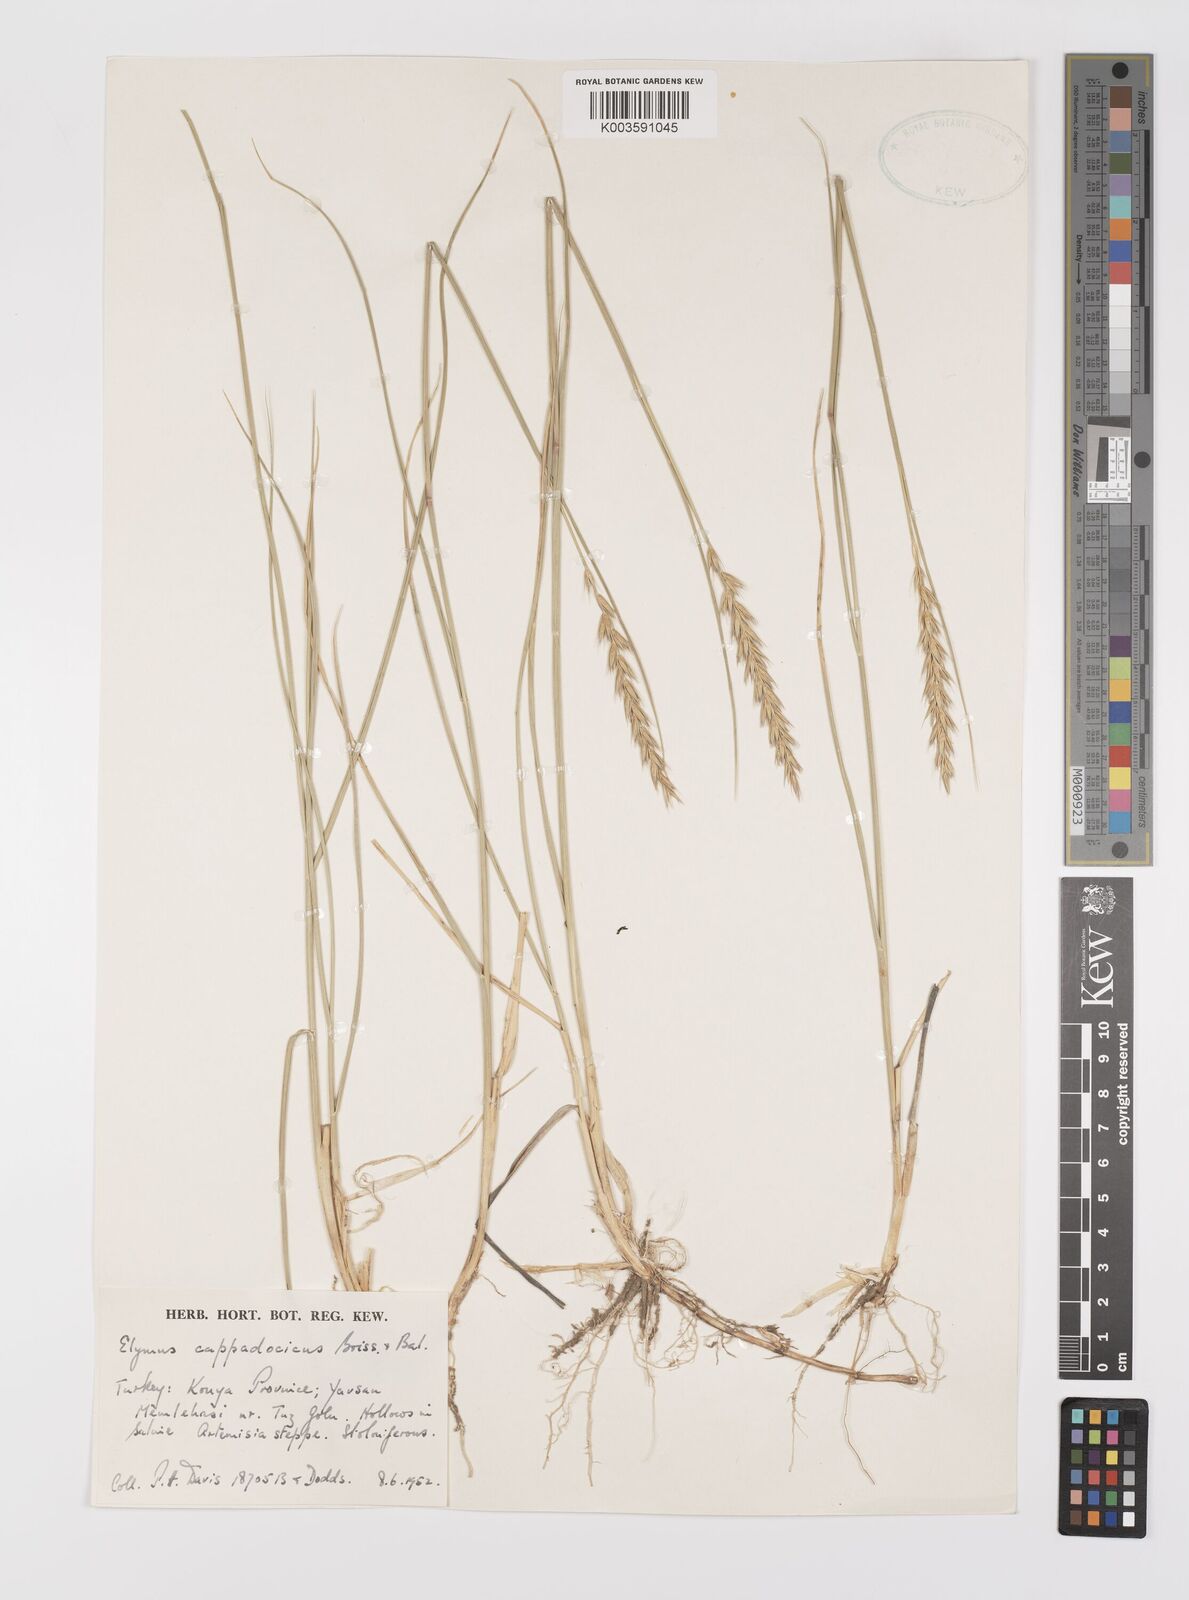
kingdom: Plantae
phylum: Tracheophyta
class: Liliopsida
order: Poales
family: Poaceae
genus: Leymus
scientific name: Leymus cappadocicus
